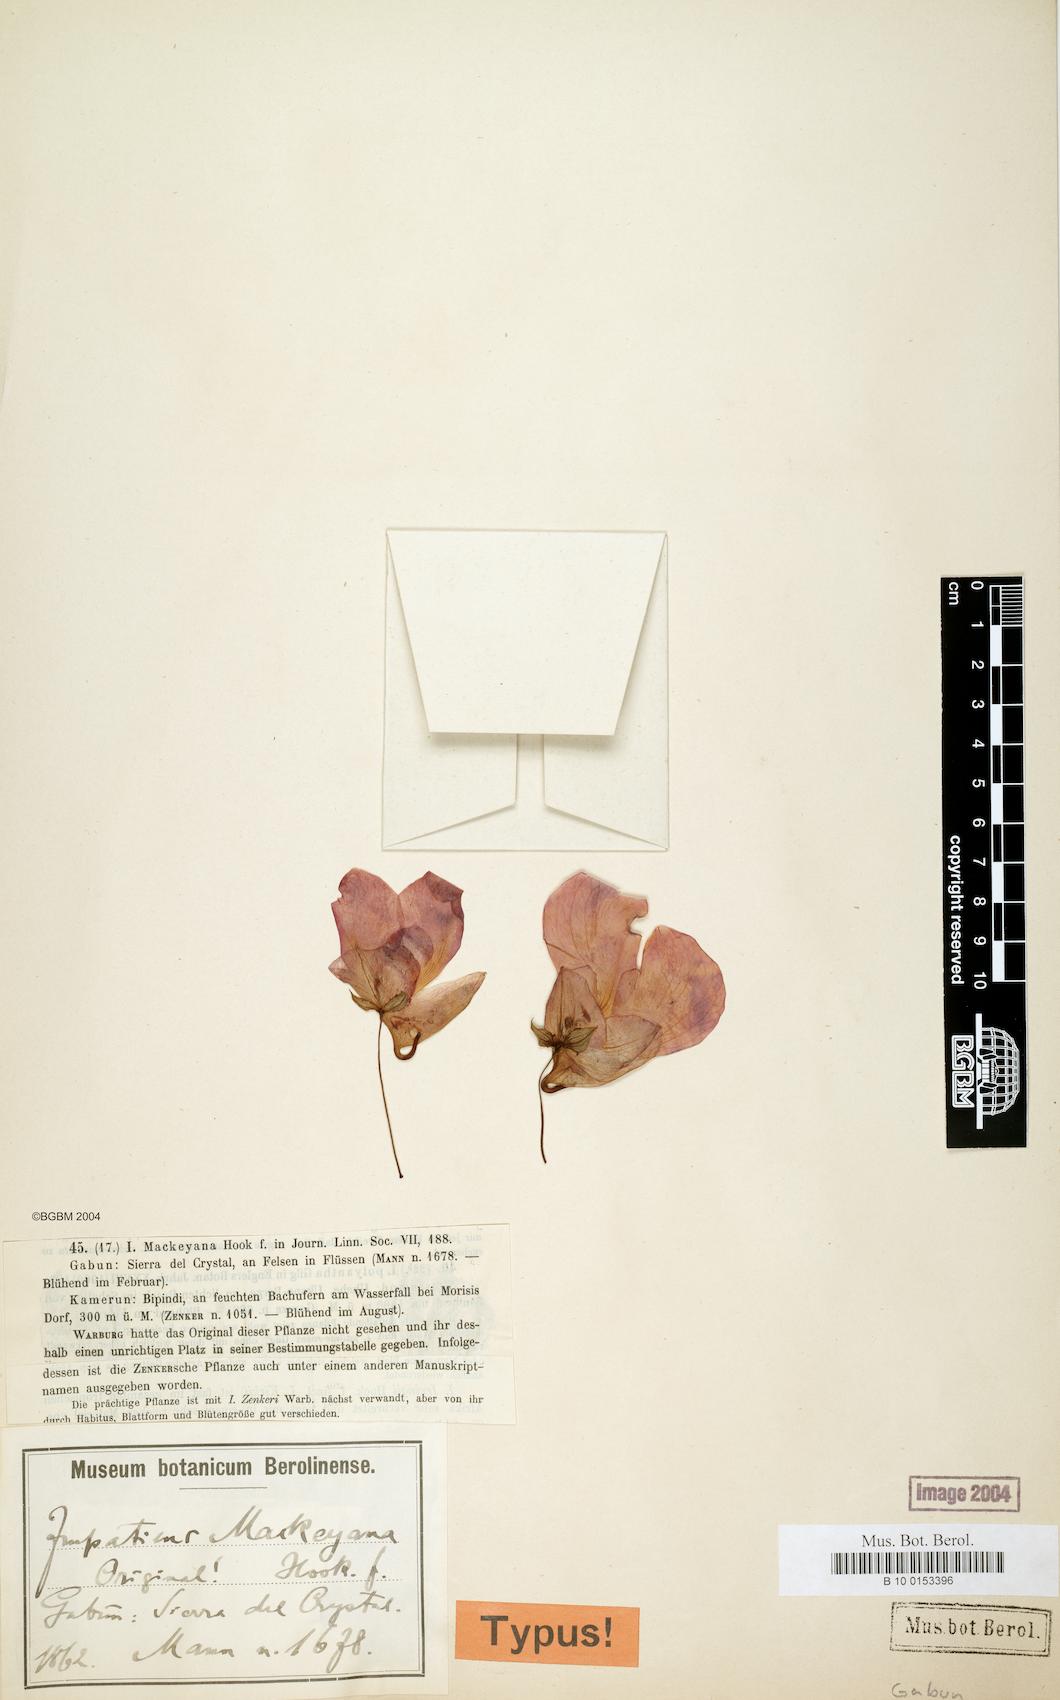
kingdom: Plantae
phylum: Tracheophyta
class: Magnoliopsida
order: Ericales
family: Balsaminaceae
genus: Impatiens
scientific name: Impatiens mackeyana
